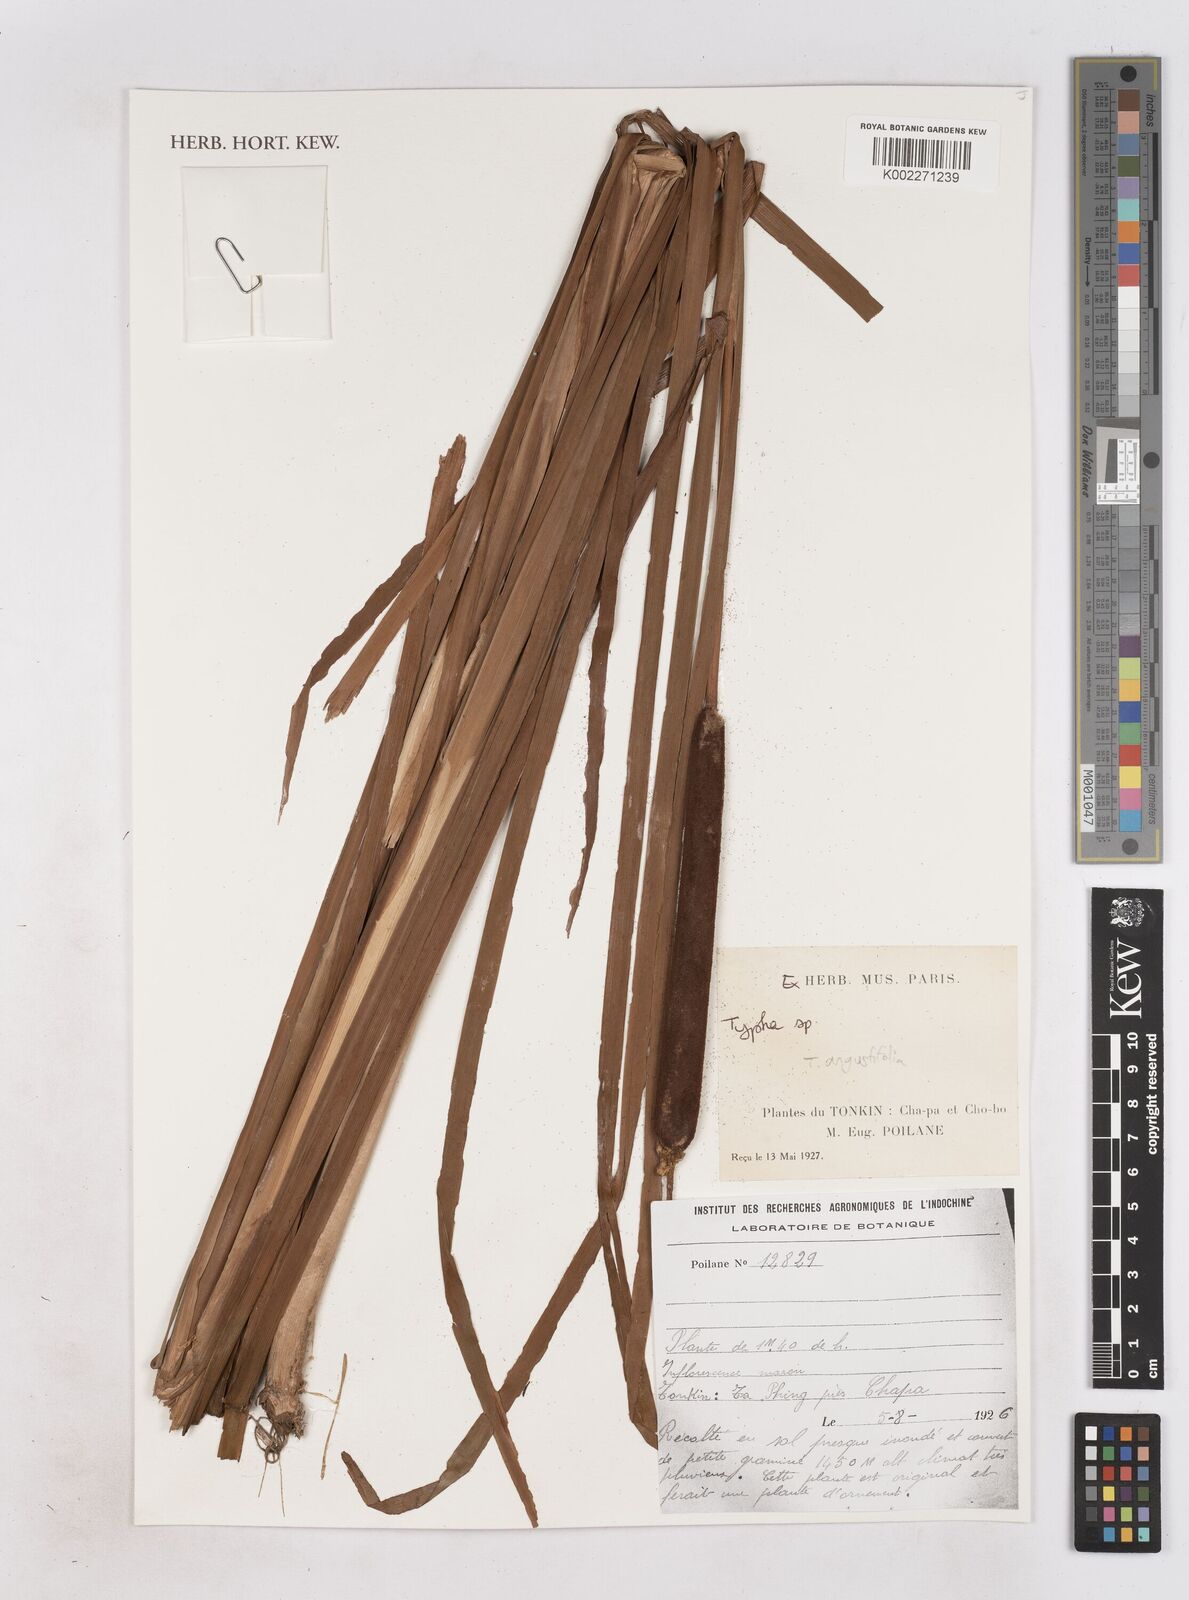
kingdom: Plantae
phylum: Tracheophyta
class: Liliopsida
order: Poales
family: Typhaceae
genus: Typha
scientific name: Typha angustifolia
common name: Lesser bulrush
